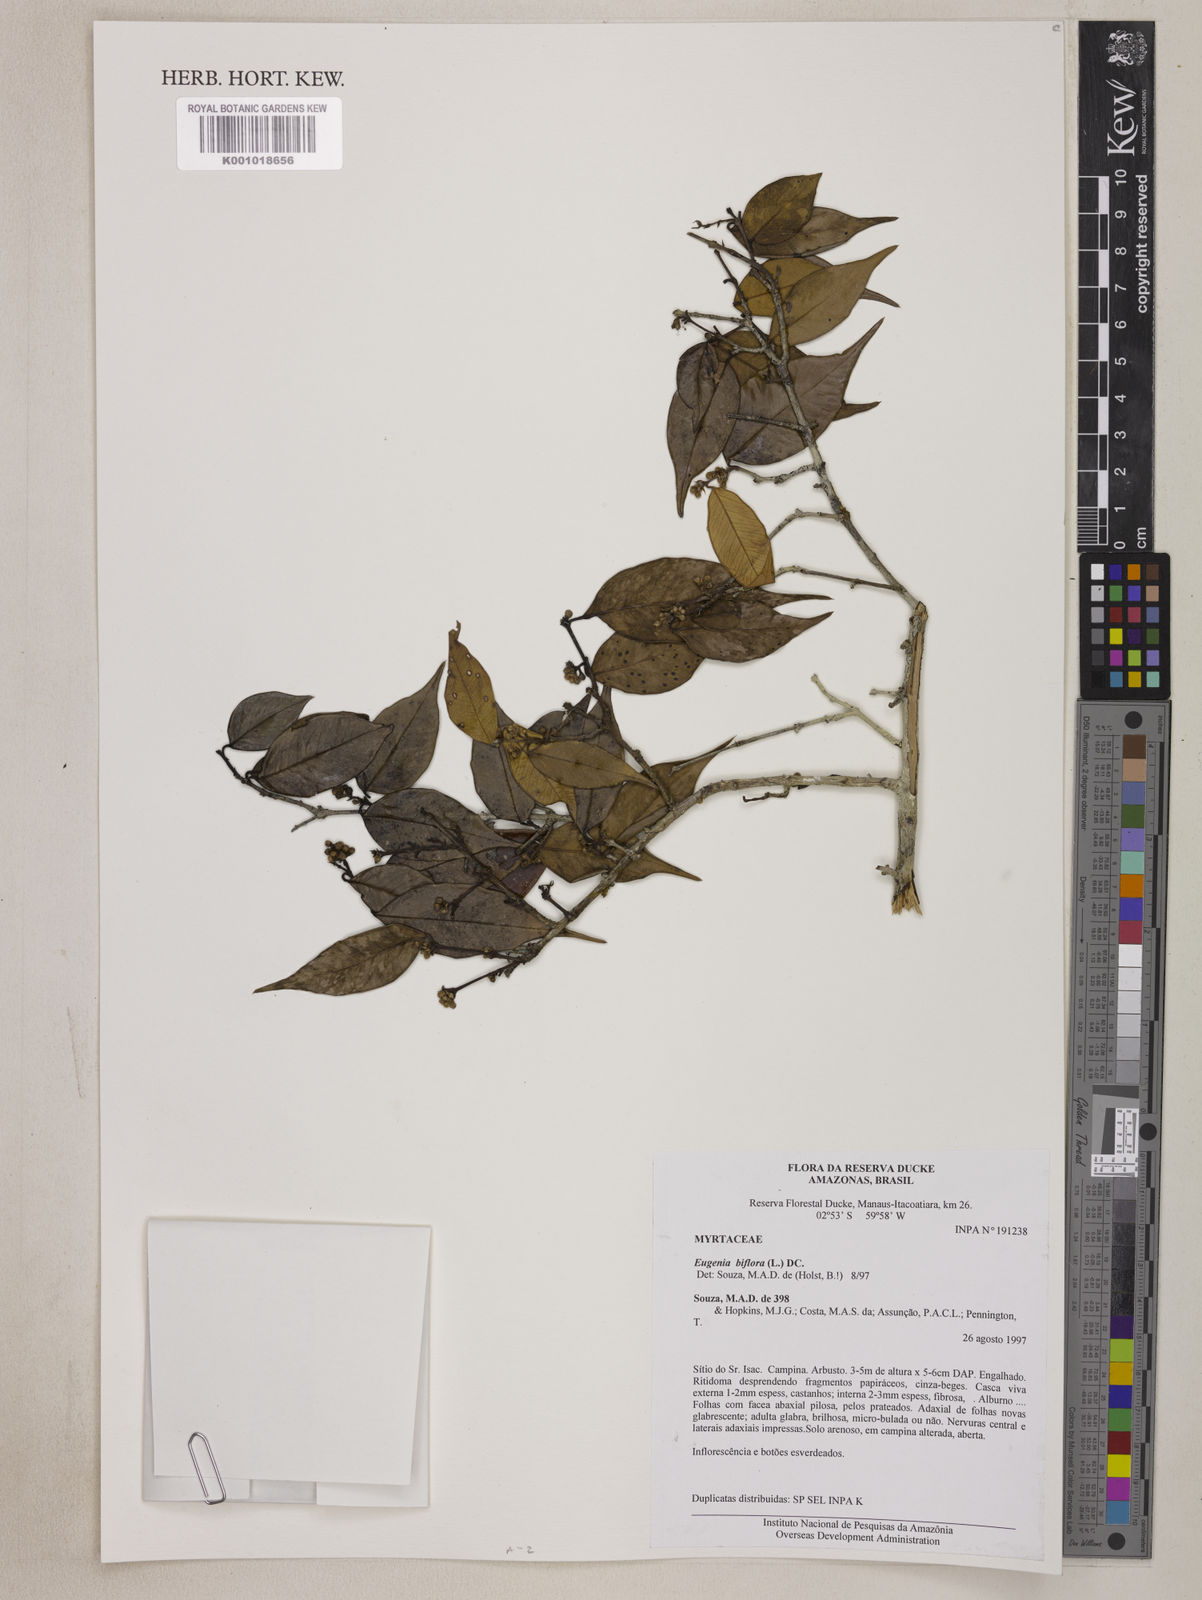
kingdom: Plantae
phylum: Tracheophyta
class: Magnoliopsida
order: Myrtales
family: Myrtaceae
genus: Eugenia
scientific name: Eugenia biflora
